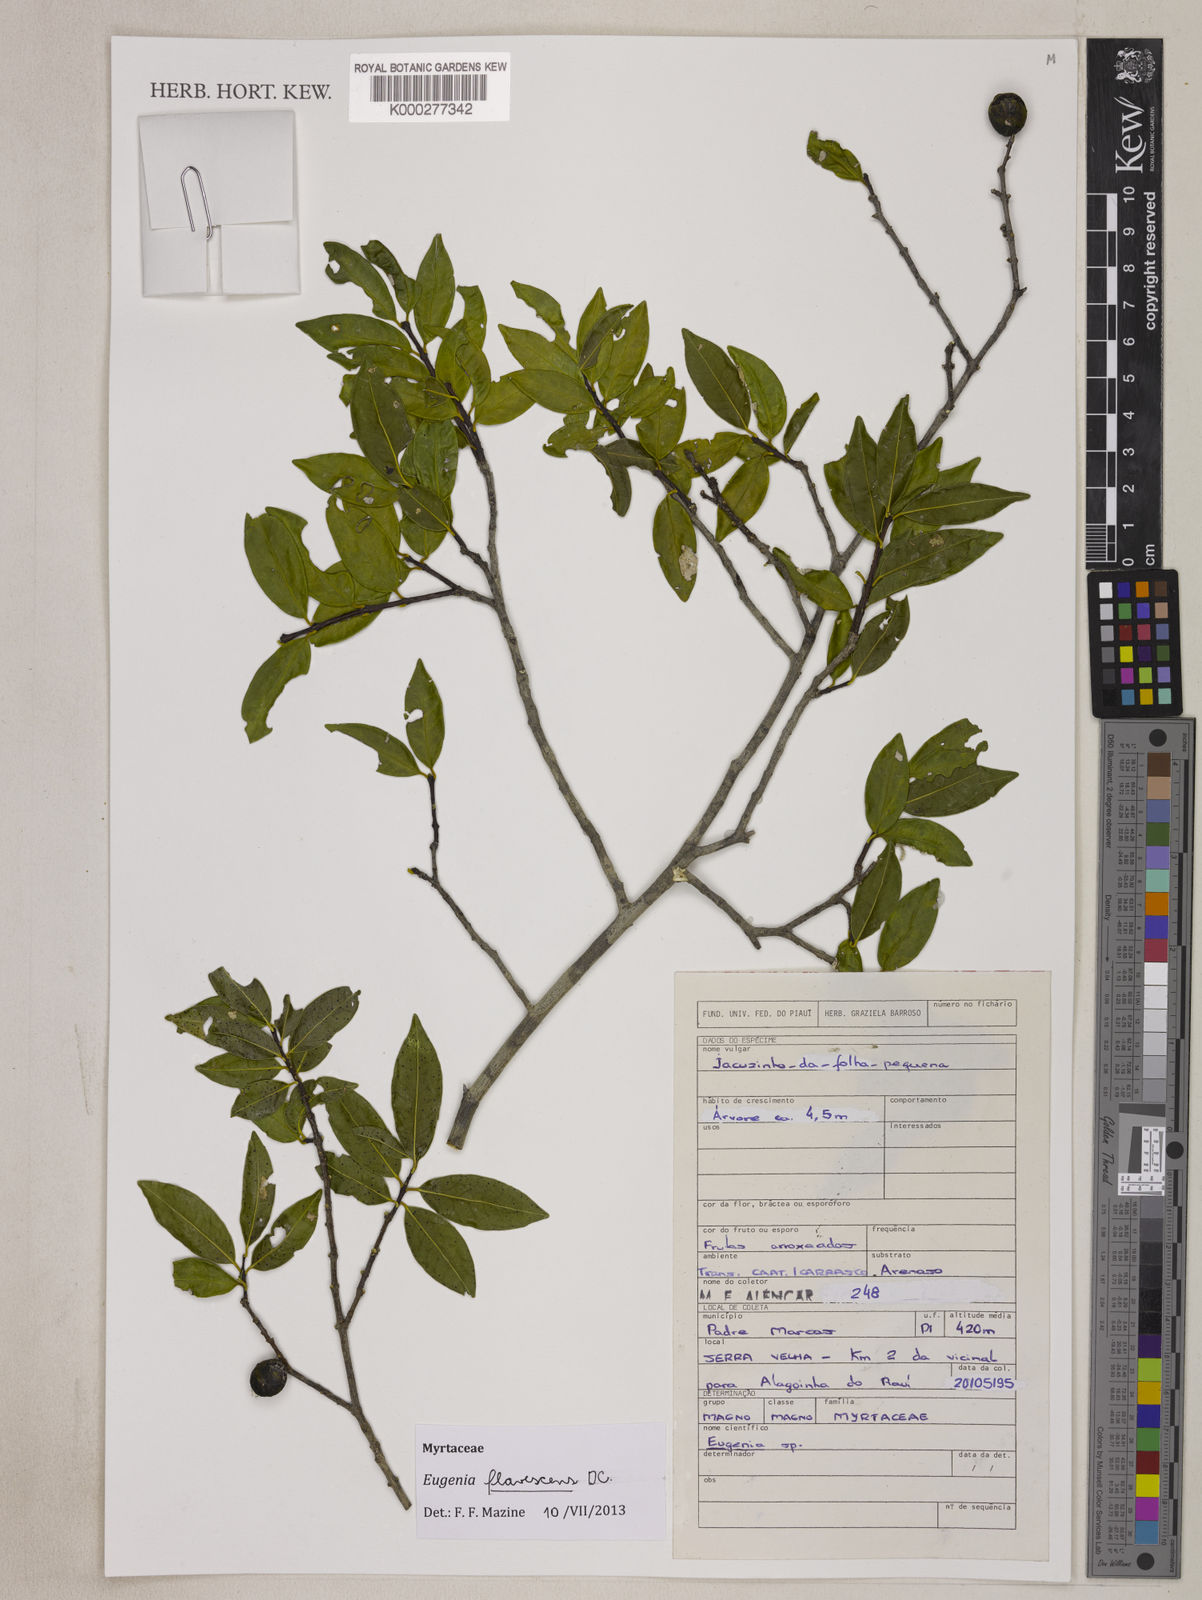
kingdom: Plantae
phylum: Tracheophyta
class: Magnoliopsida
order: Myrtales
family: Myrtaceae
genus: Eugenia
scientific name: Eugenia
